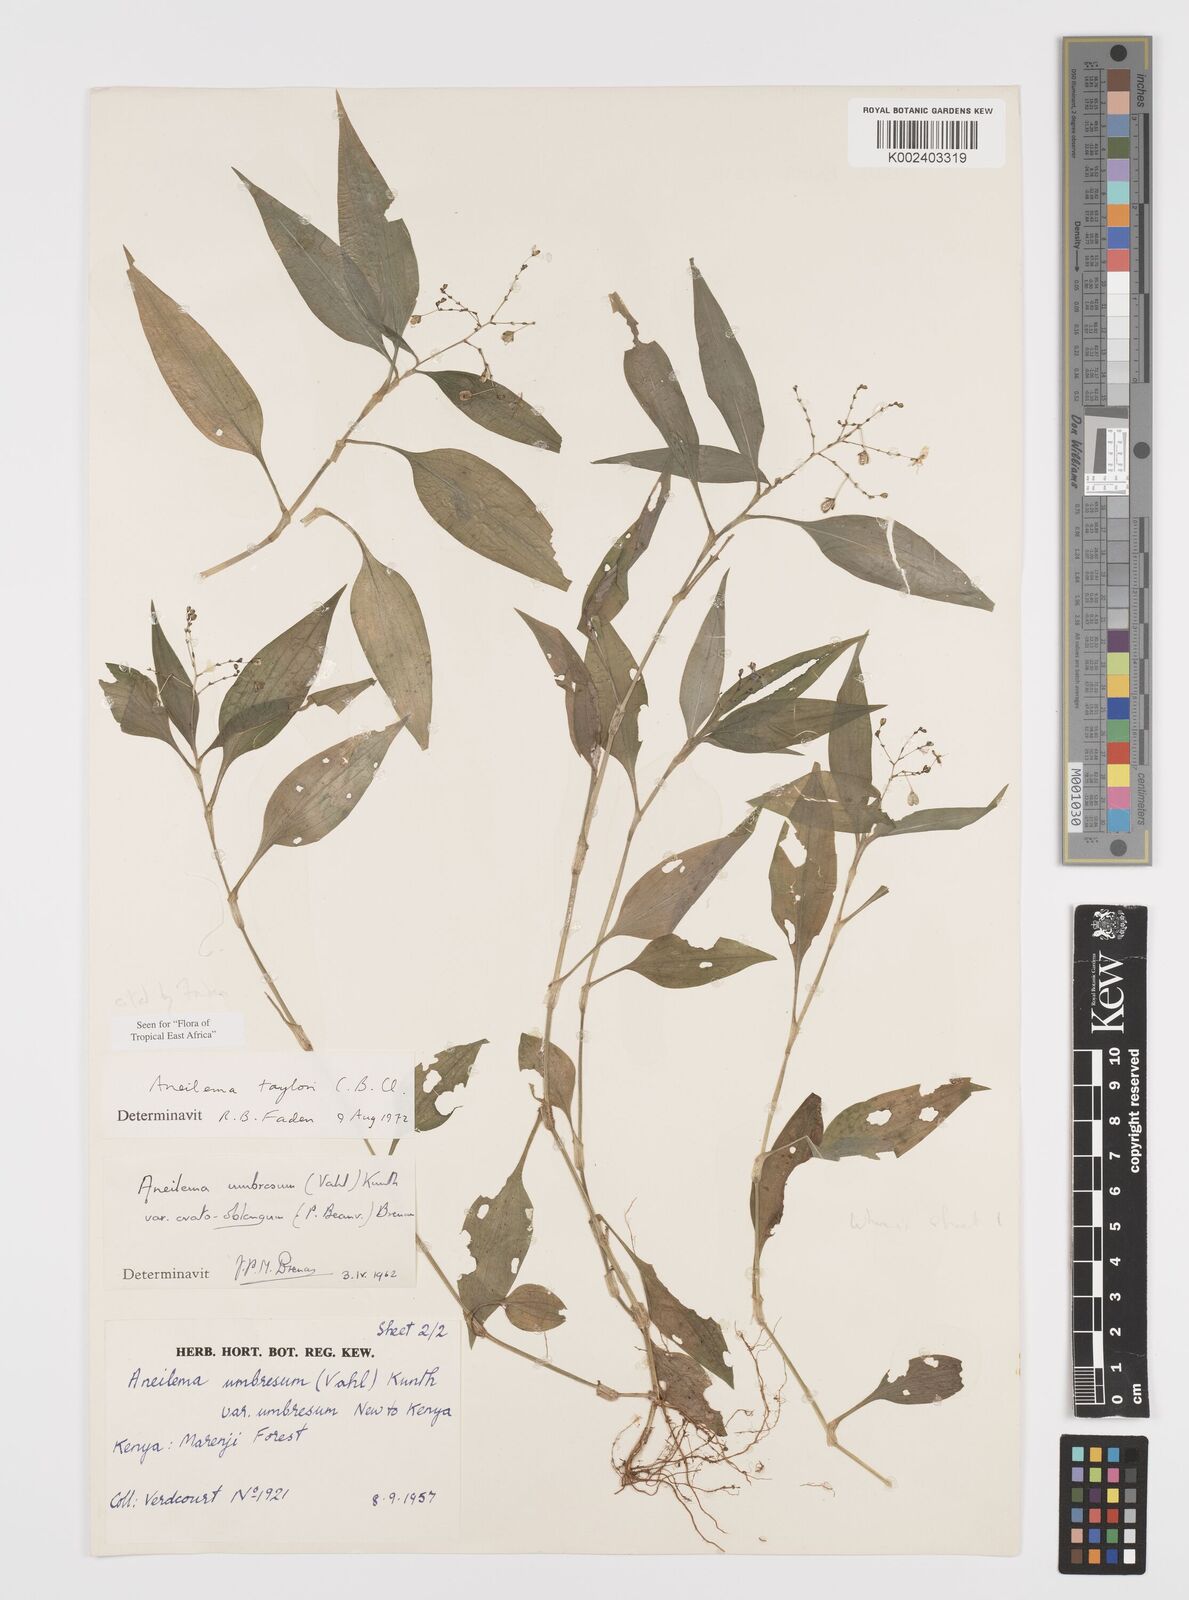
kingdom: Plantae
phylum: Tracheophyta
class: Liliopsida
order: Commelinales
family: Commelinaceae
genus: Aneilema
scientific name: Aneilema taylorii
